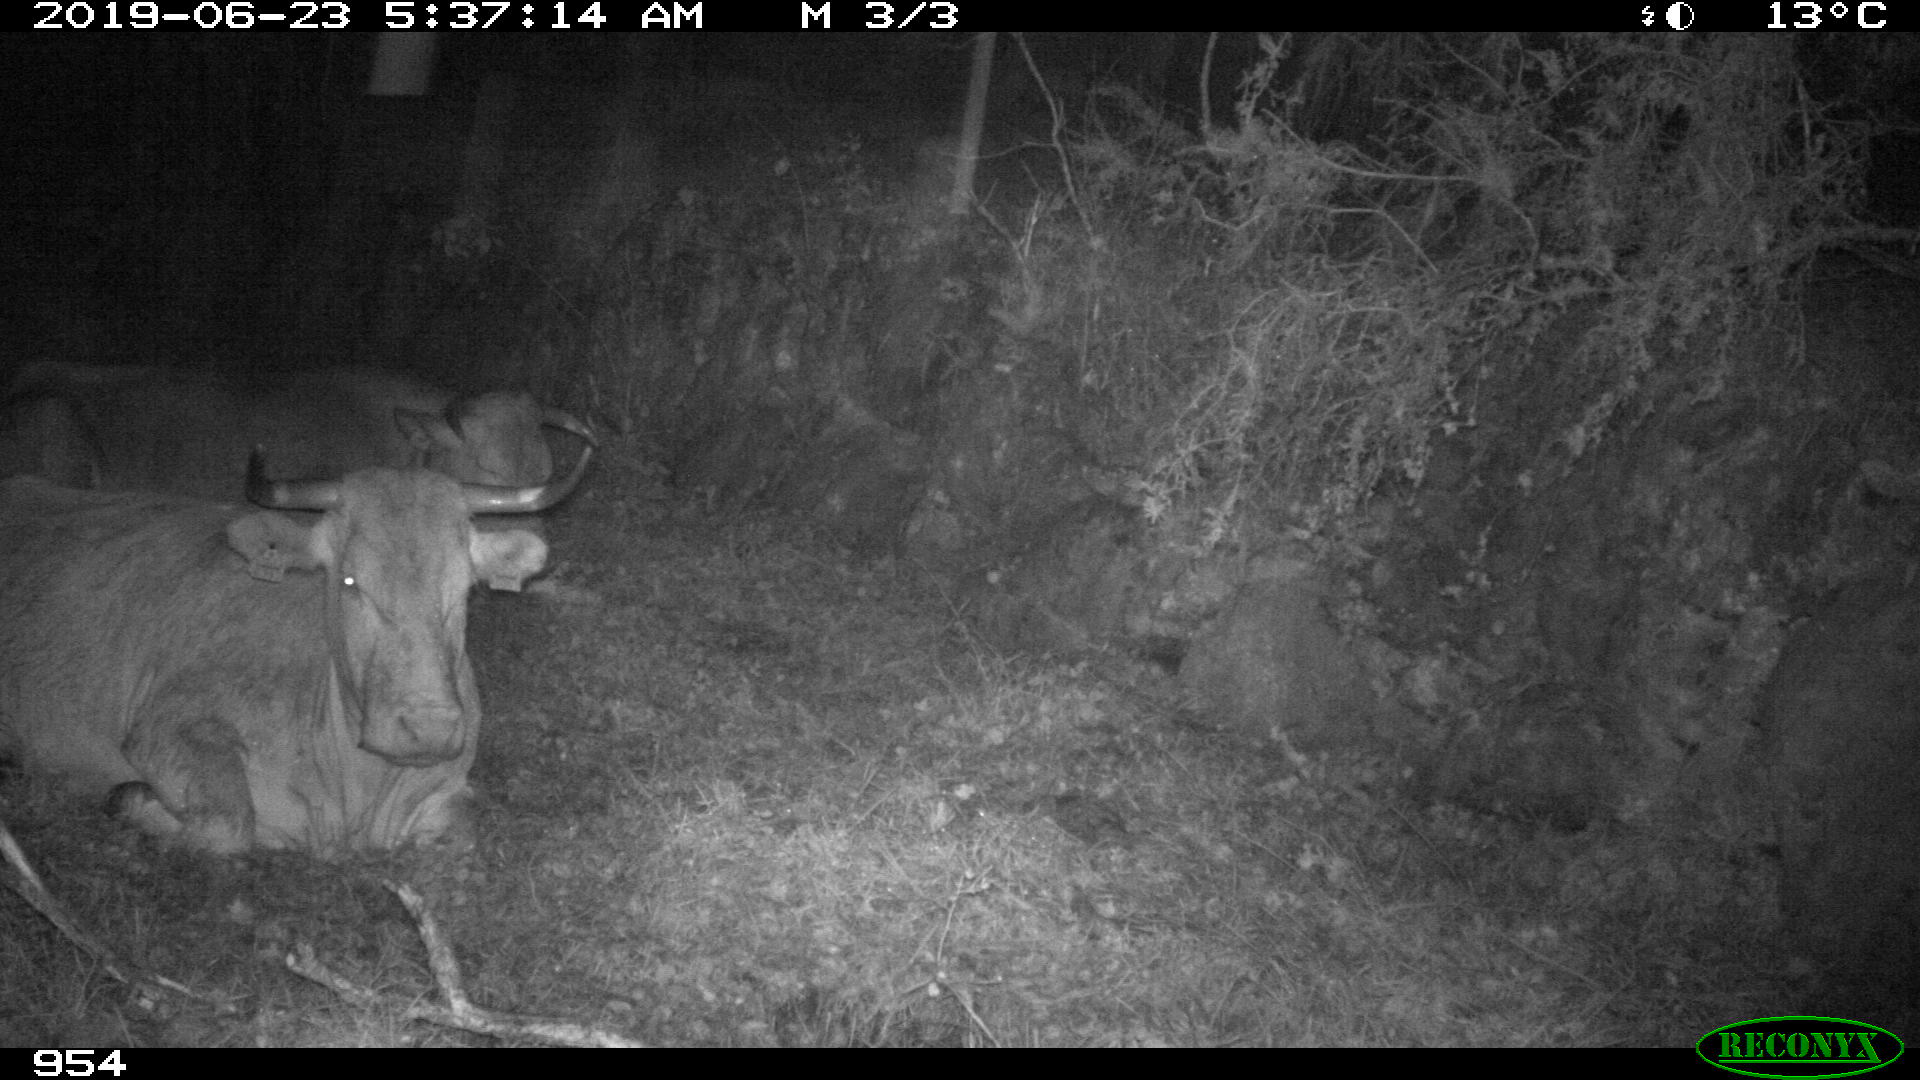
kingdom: Animalia
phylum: Chordata
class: Mammalia
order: Artiodactyla
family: Bovidae
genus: Bos
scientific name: Bos taurus
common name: Domesticated cattle
